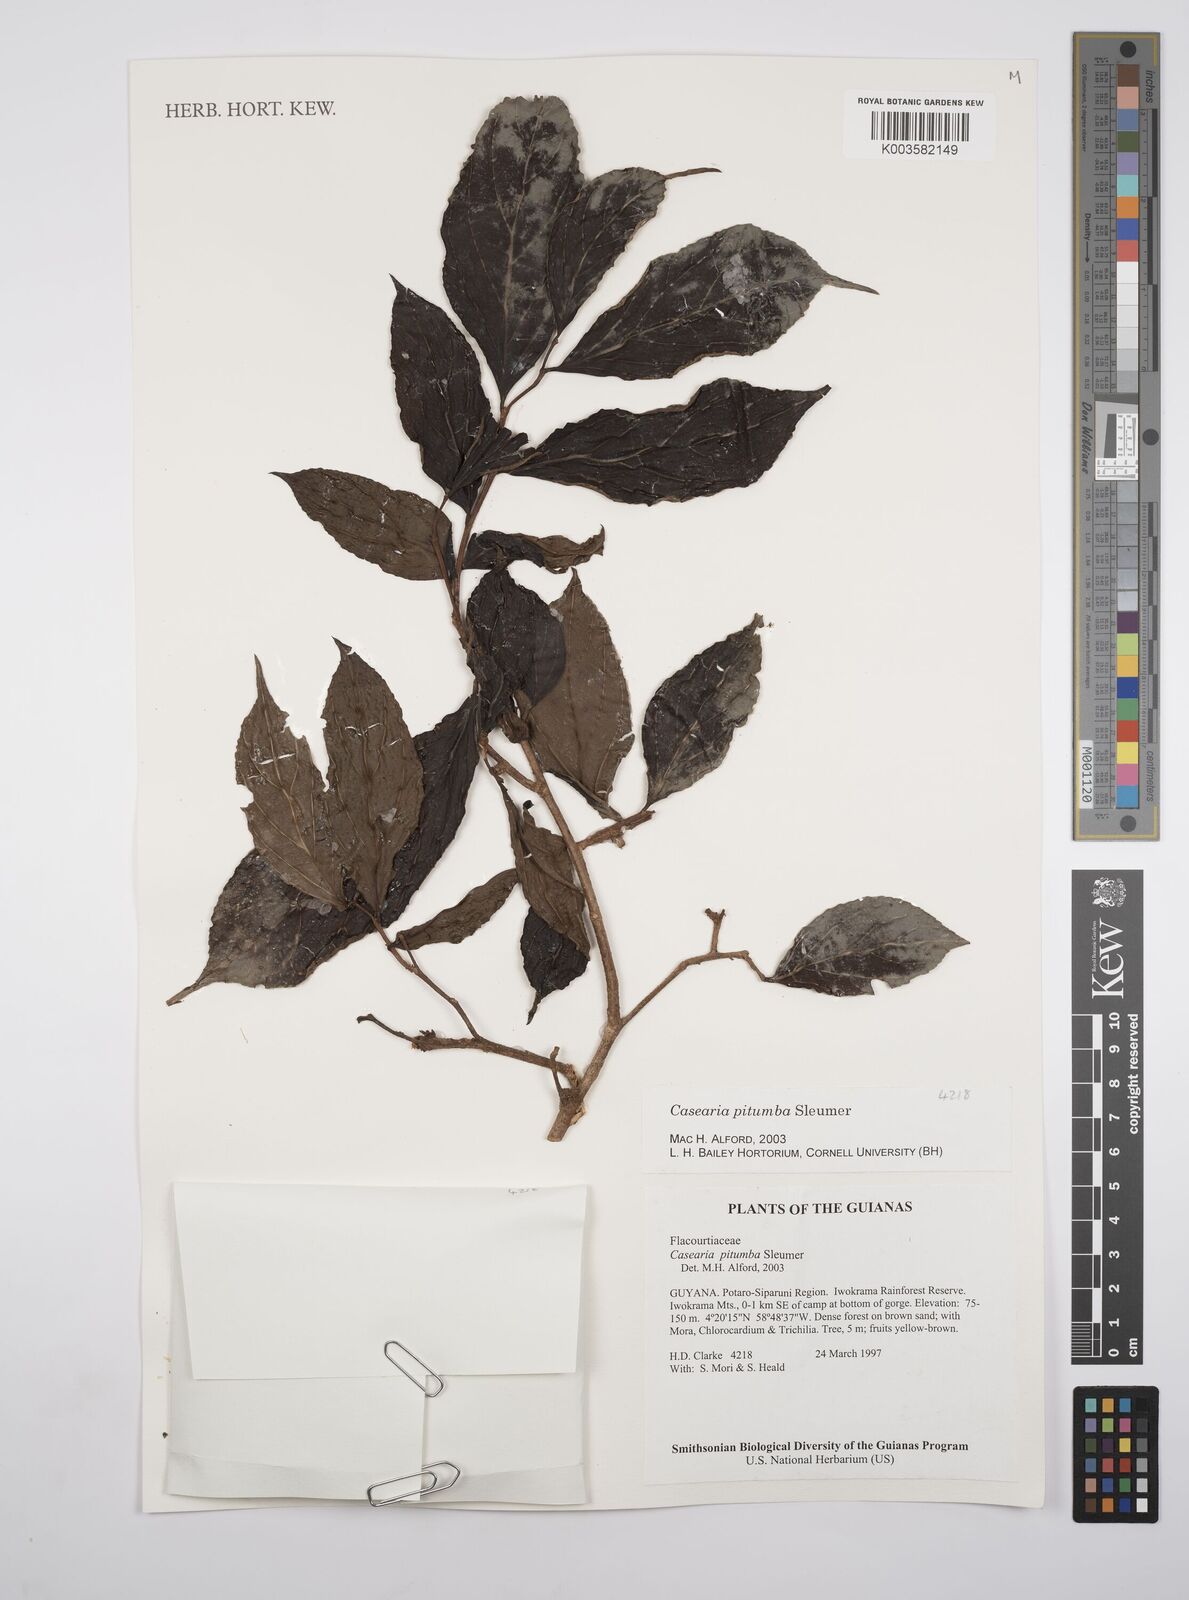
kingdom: Plantae
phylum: Tracheophyta
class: Magnoliopsida
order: Malpighiales
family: Salicaceae
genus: Casearia
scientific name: Casearia pitumba
